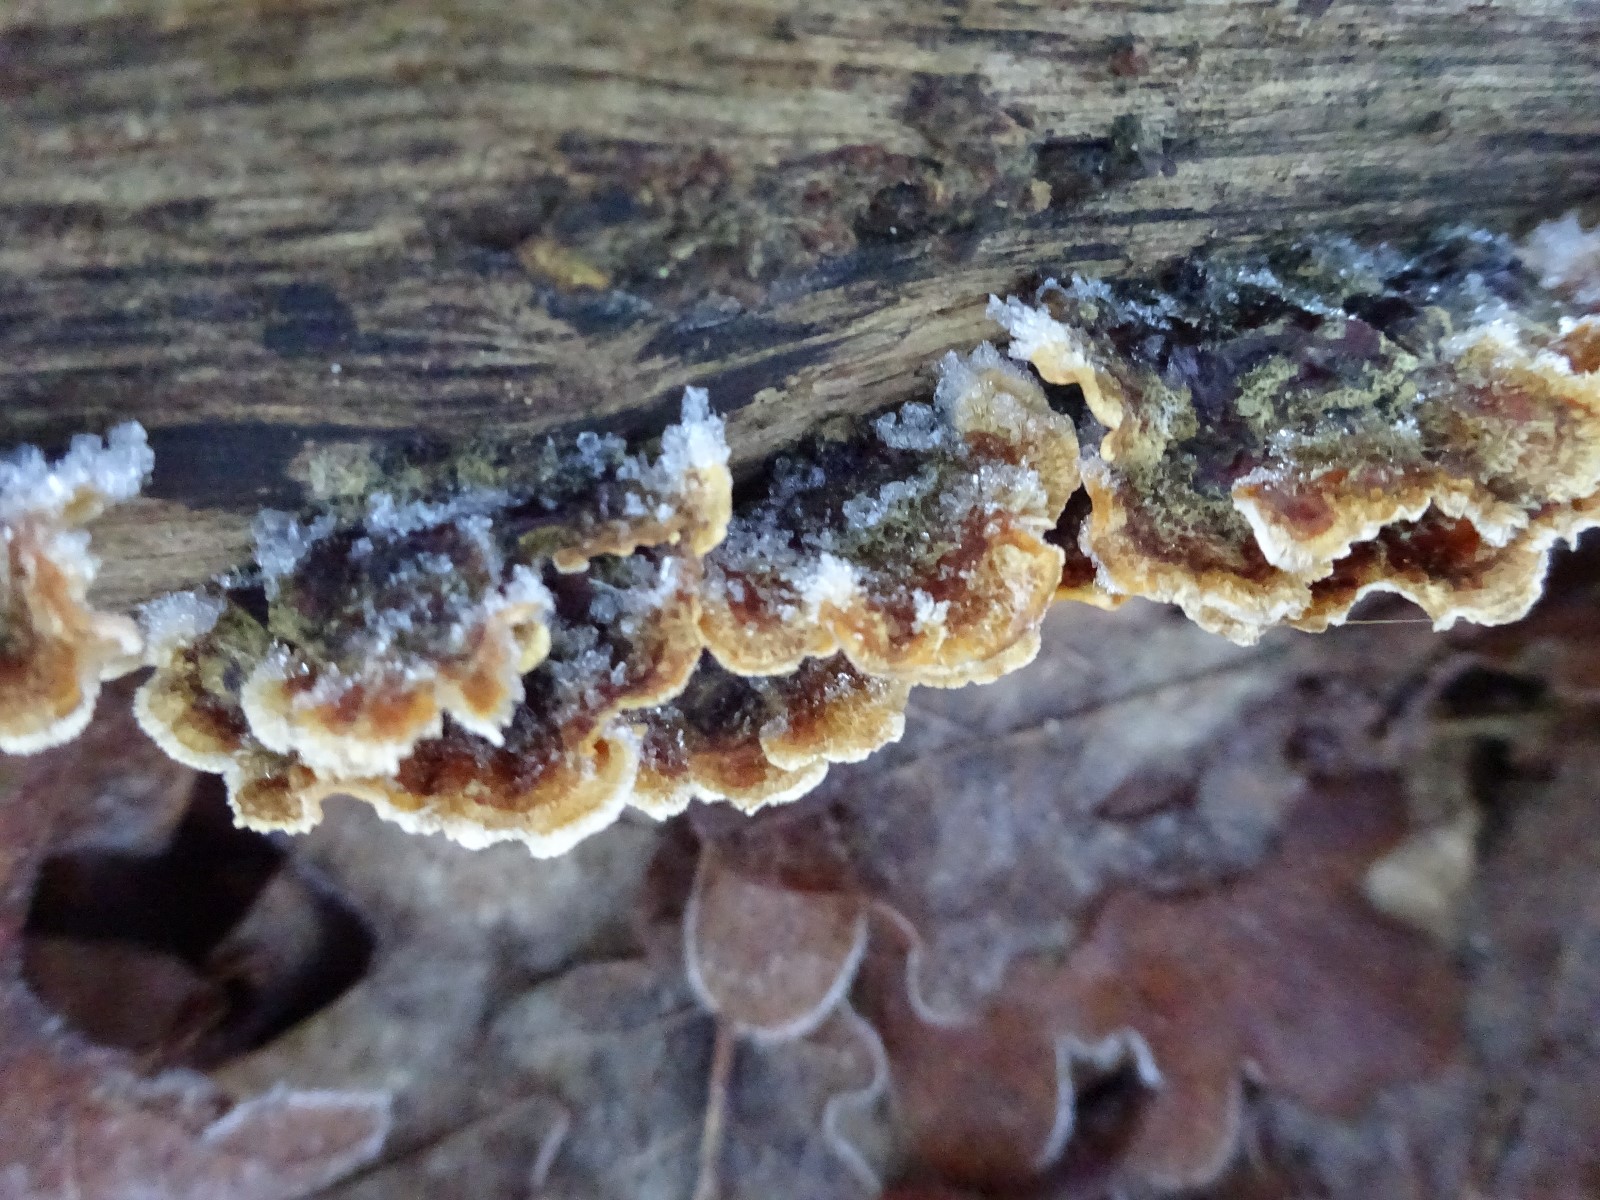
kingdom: Fungi
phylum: Basidiomycota
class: Agaricomycetes
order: Russulales
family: Stereaceae
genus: Stereum
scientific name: Stereum hirsutum
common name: håret lædersvamp
